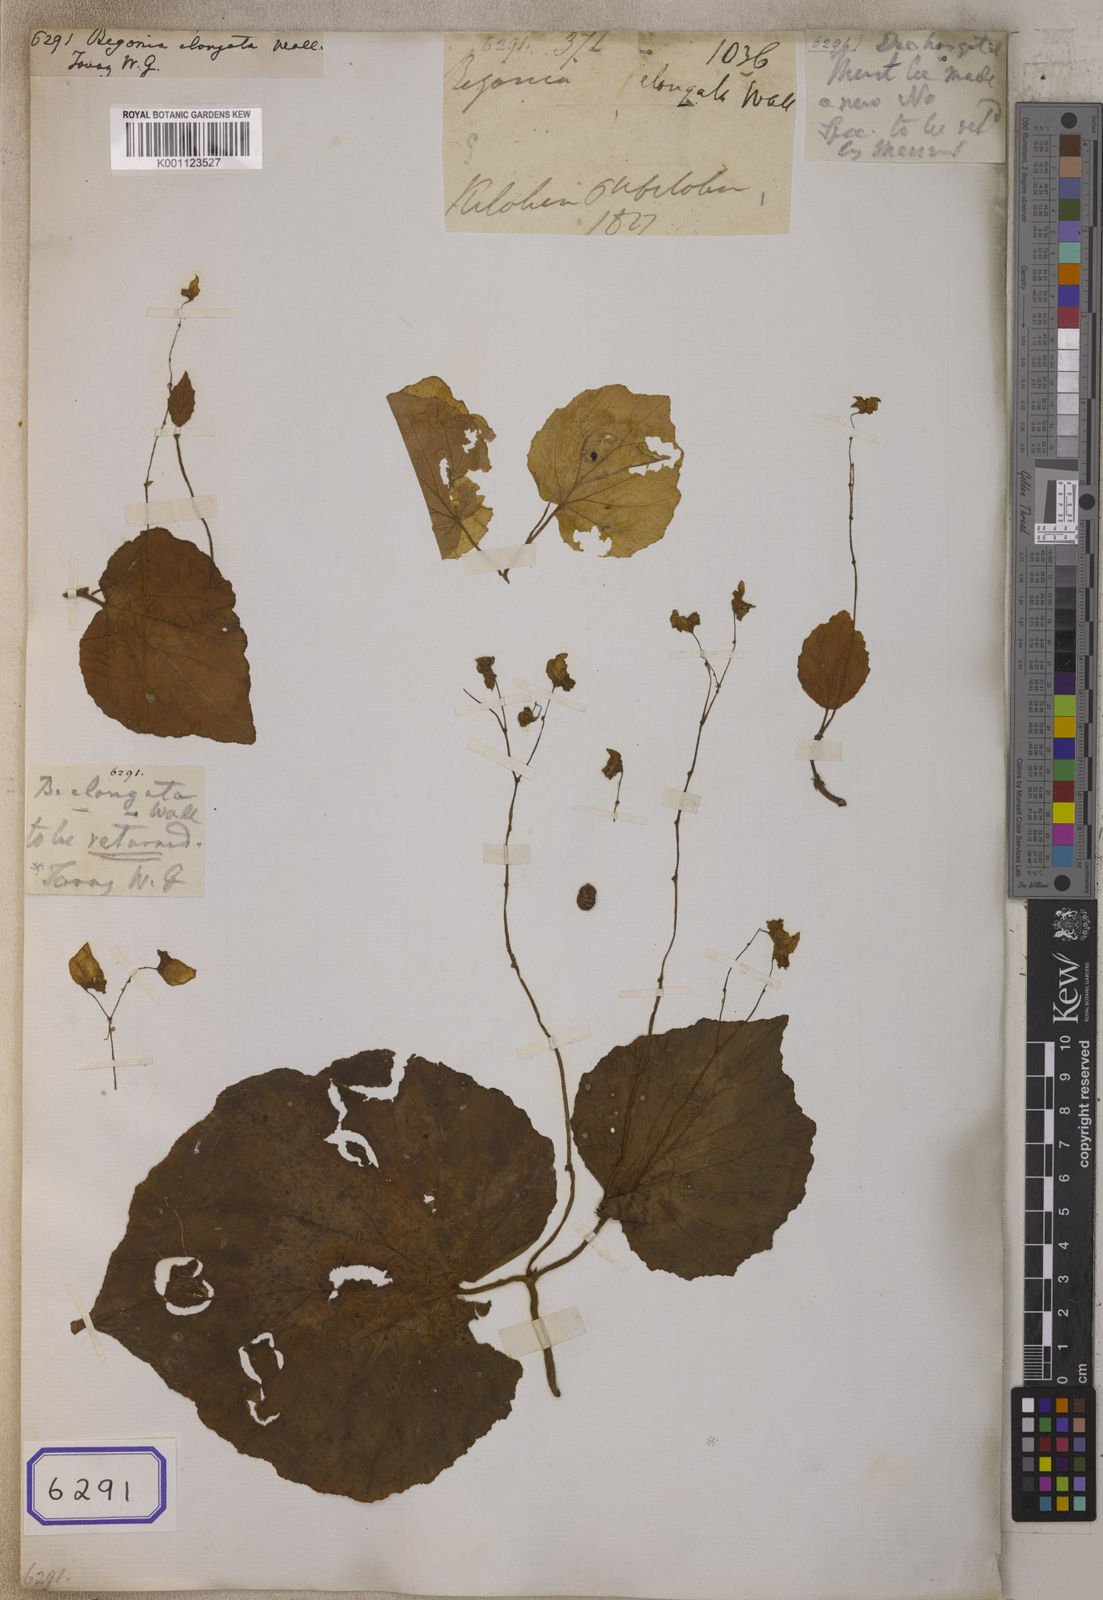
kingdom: Plantae
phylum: Tracheophyta
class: Magnoliopsida
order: Cucurbitales
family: Begoniaceae
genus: Begonia
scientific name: Begonia sinuata
